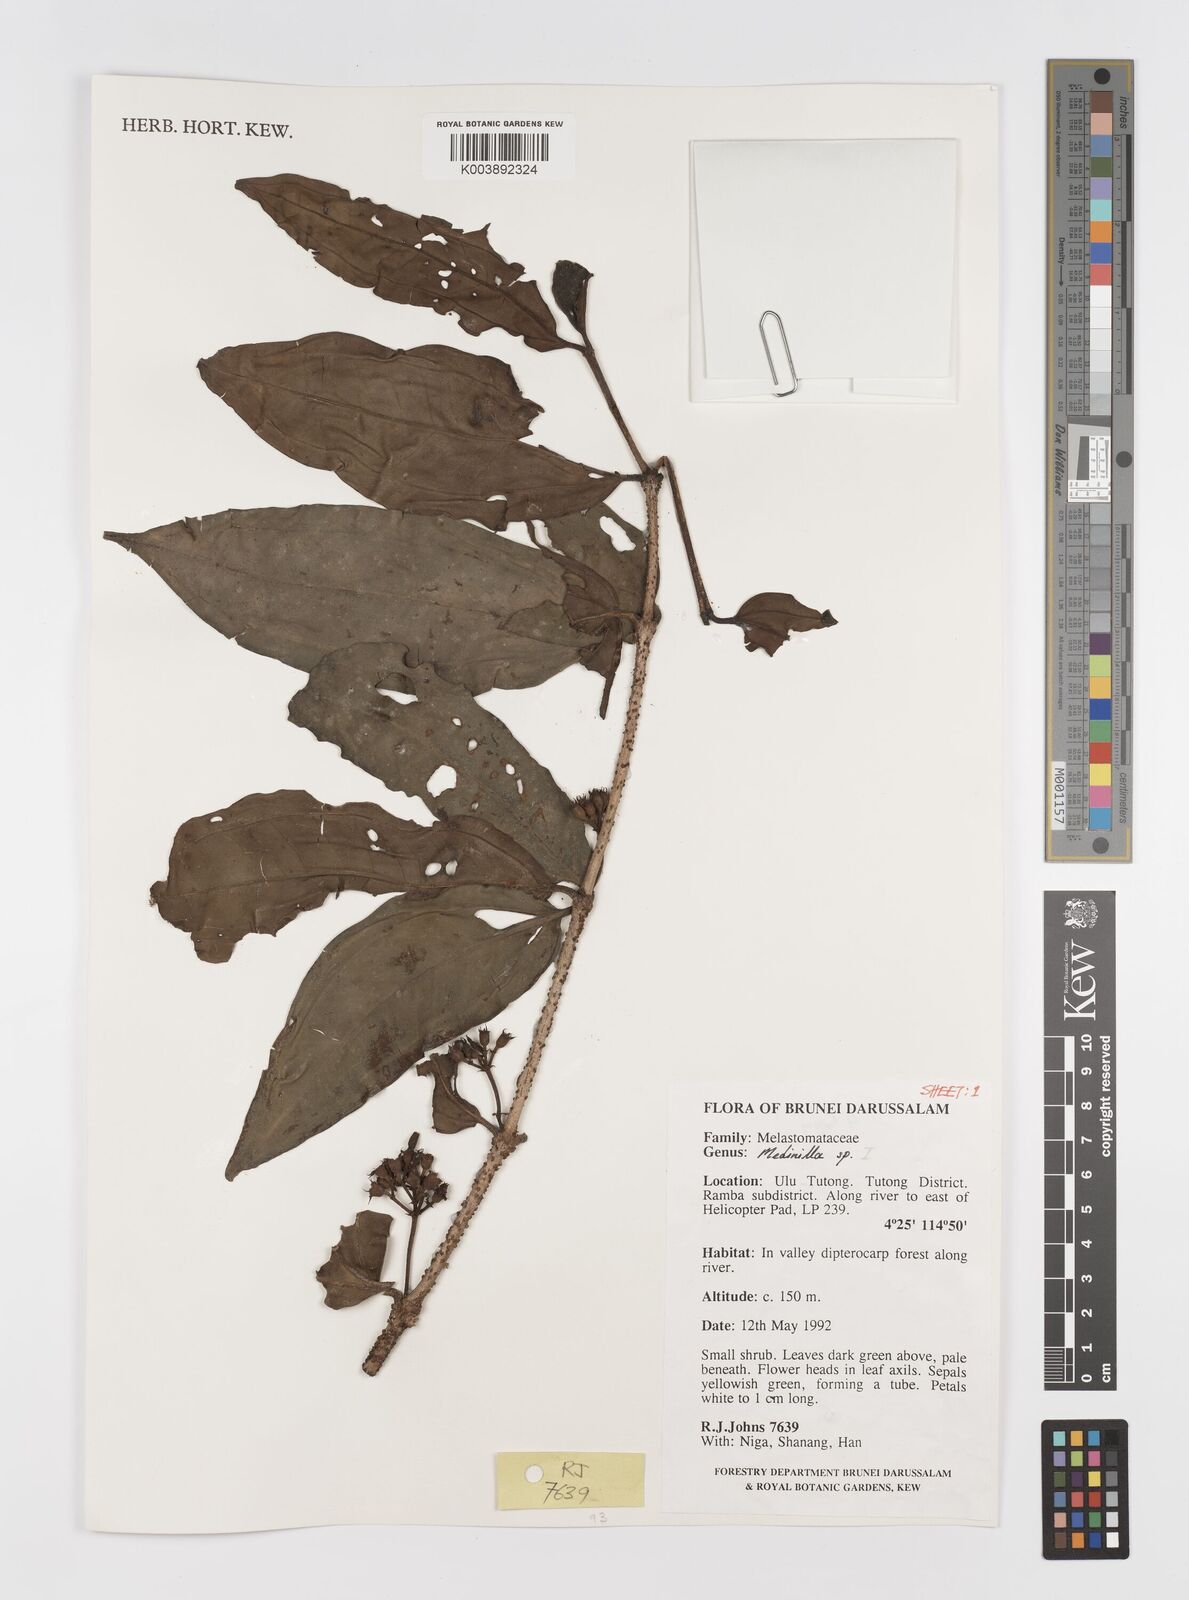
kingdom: Plantae
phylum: Tracheophyta
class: Magnoliopsida
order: Myrtales
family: Melastomataceae
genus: Medinilla
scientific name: Medinilla
